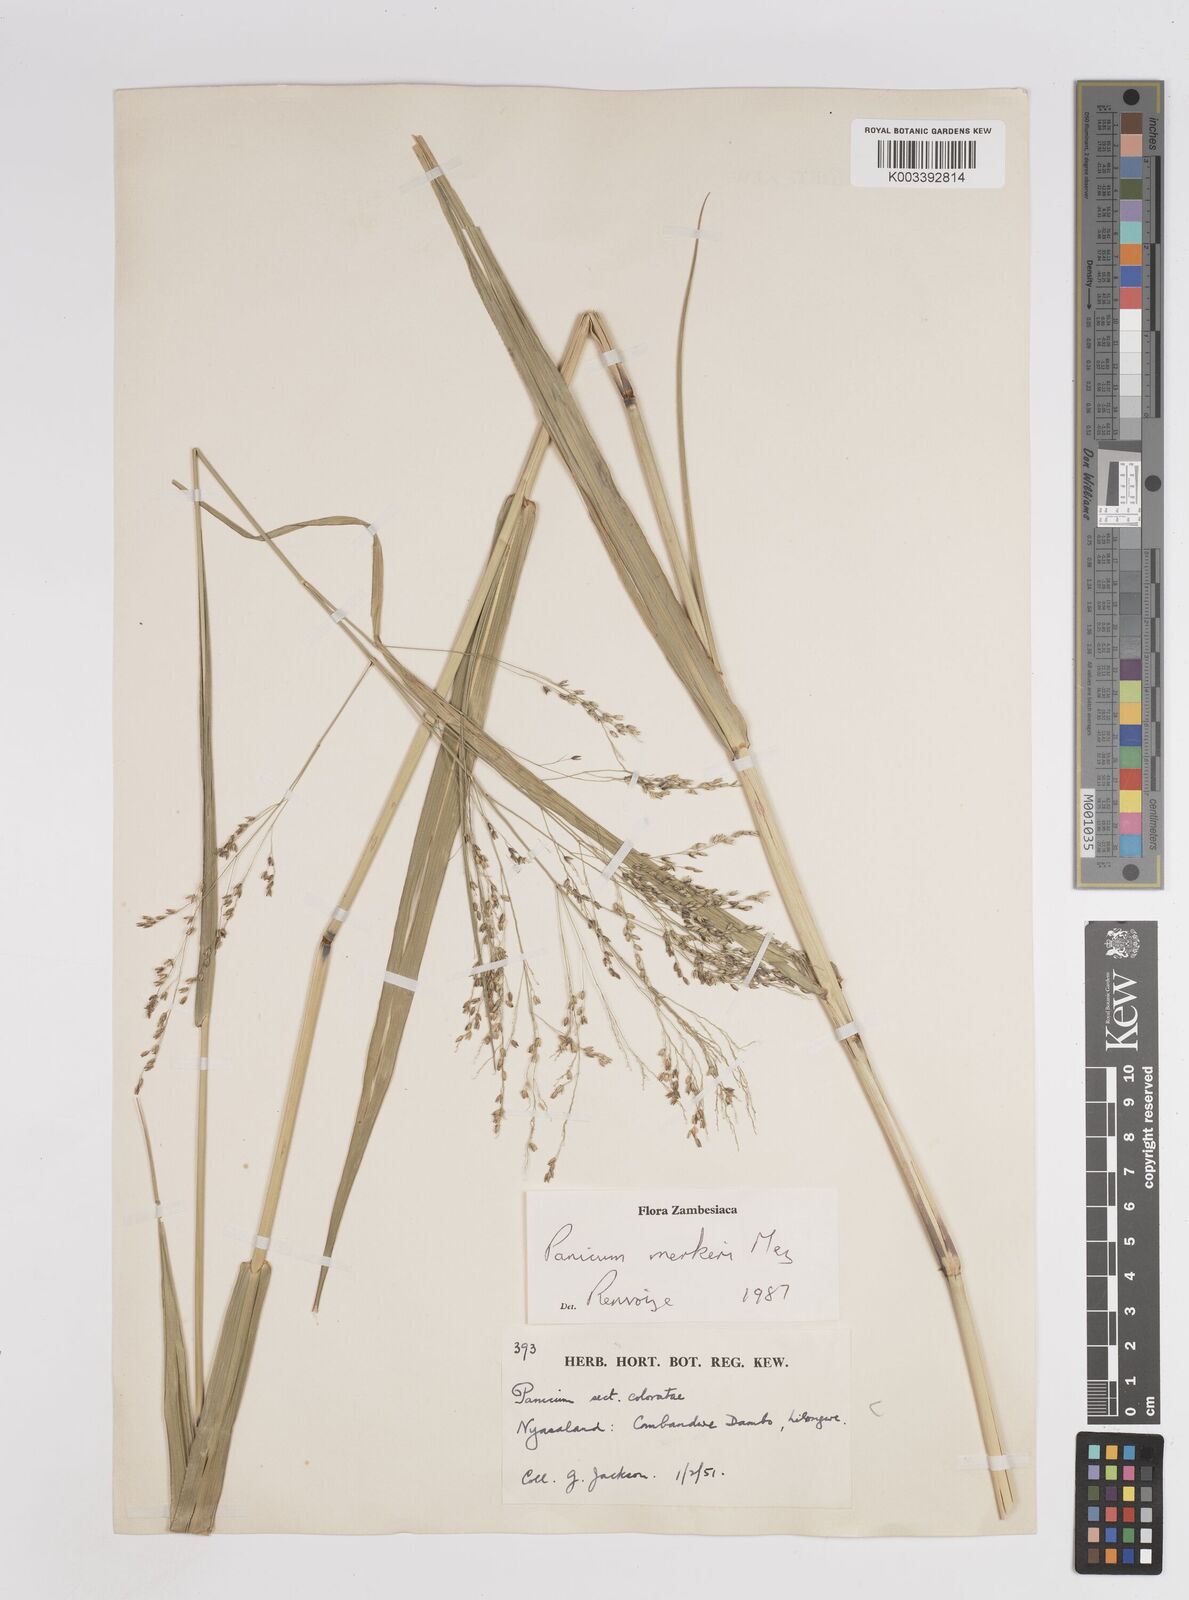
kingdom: Plantae
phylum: Tracheophyta
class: Liliopsida
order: Poales
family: Poaceae
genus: Panicum
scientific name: Panicum merkeri
